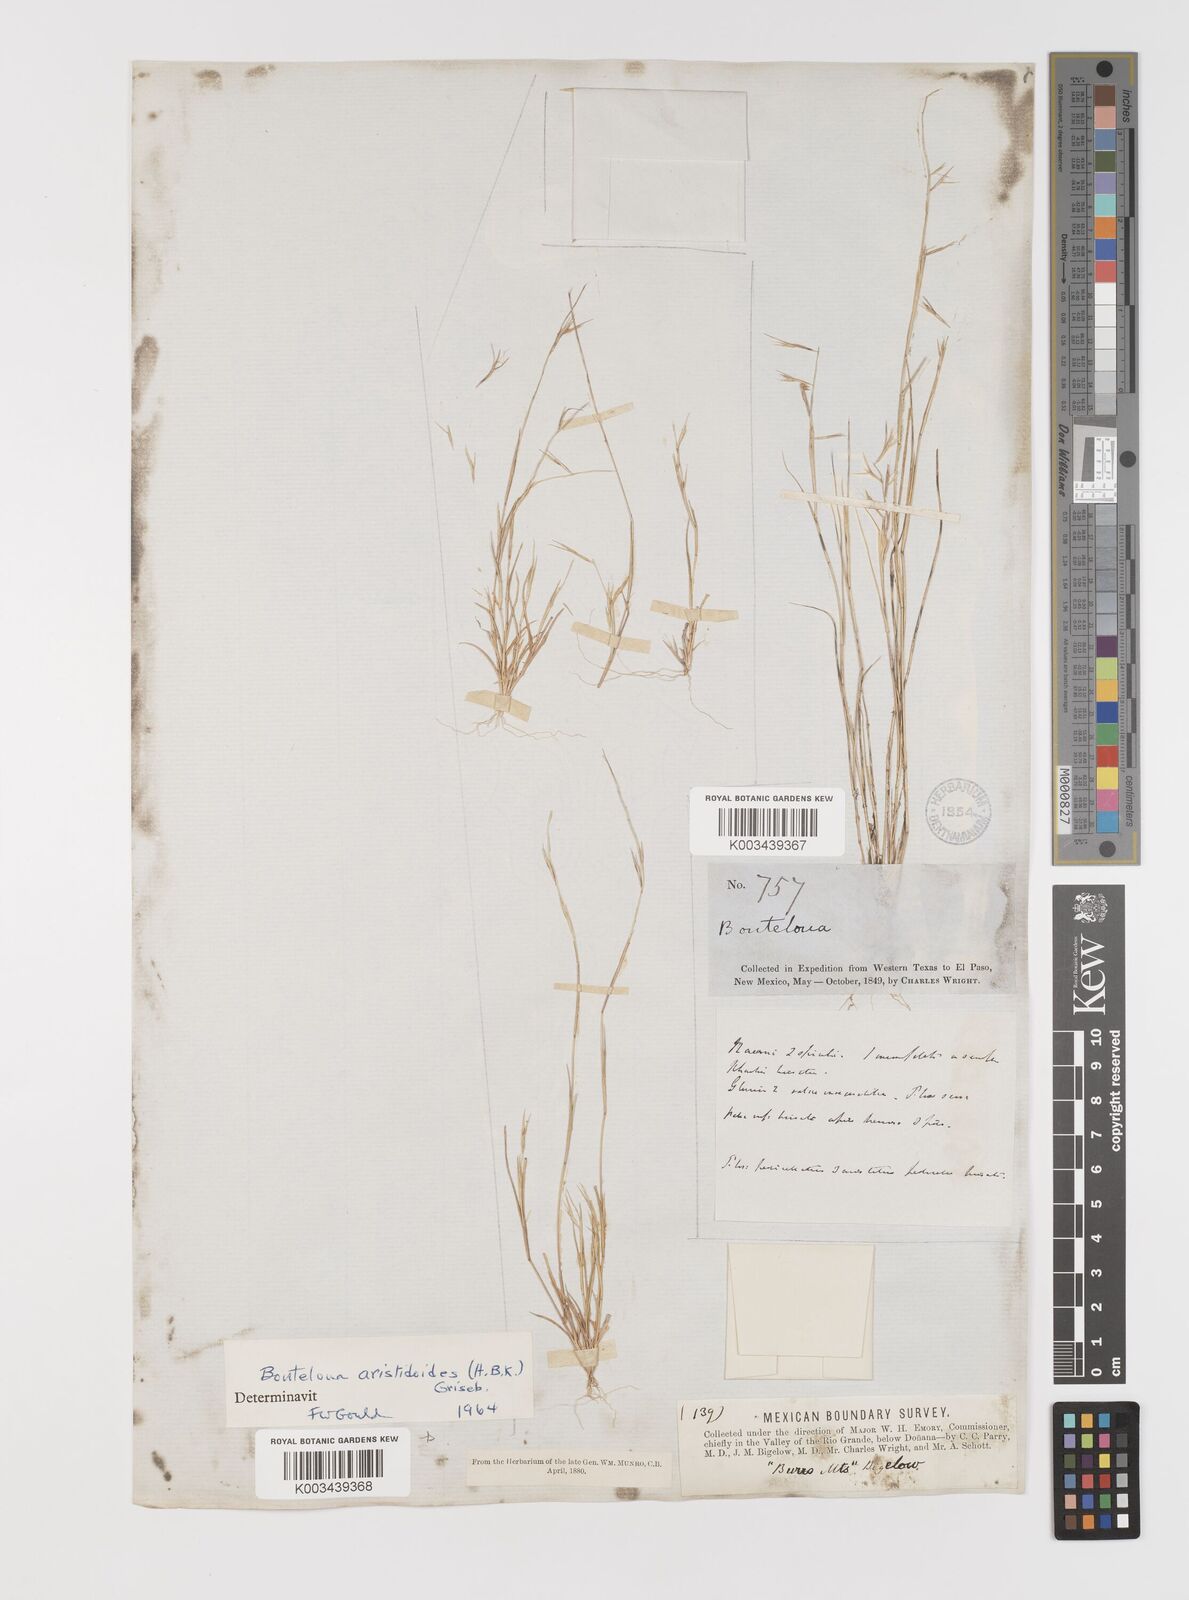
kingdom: Plantae
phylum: Tracheophyta
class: Liliopsida
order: Poales
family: Poaceae
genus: Bouteloua
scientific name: Bouteloua aristidoides
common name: Needle grama
